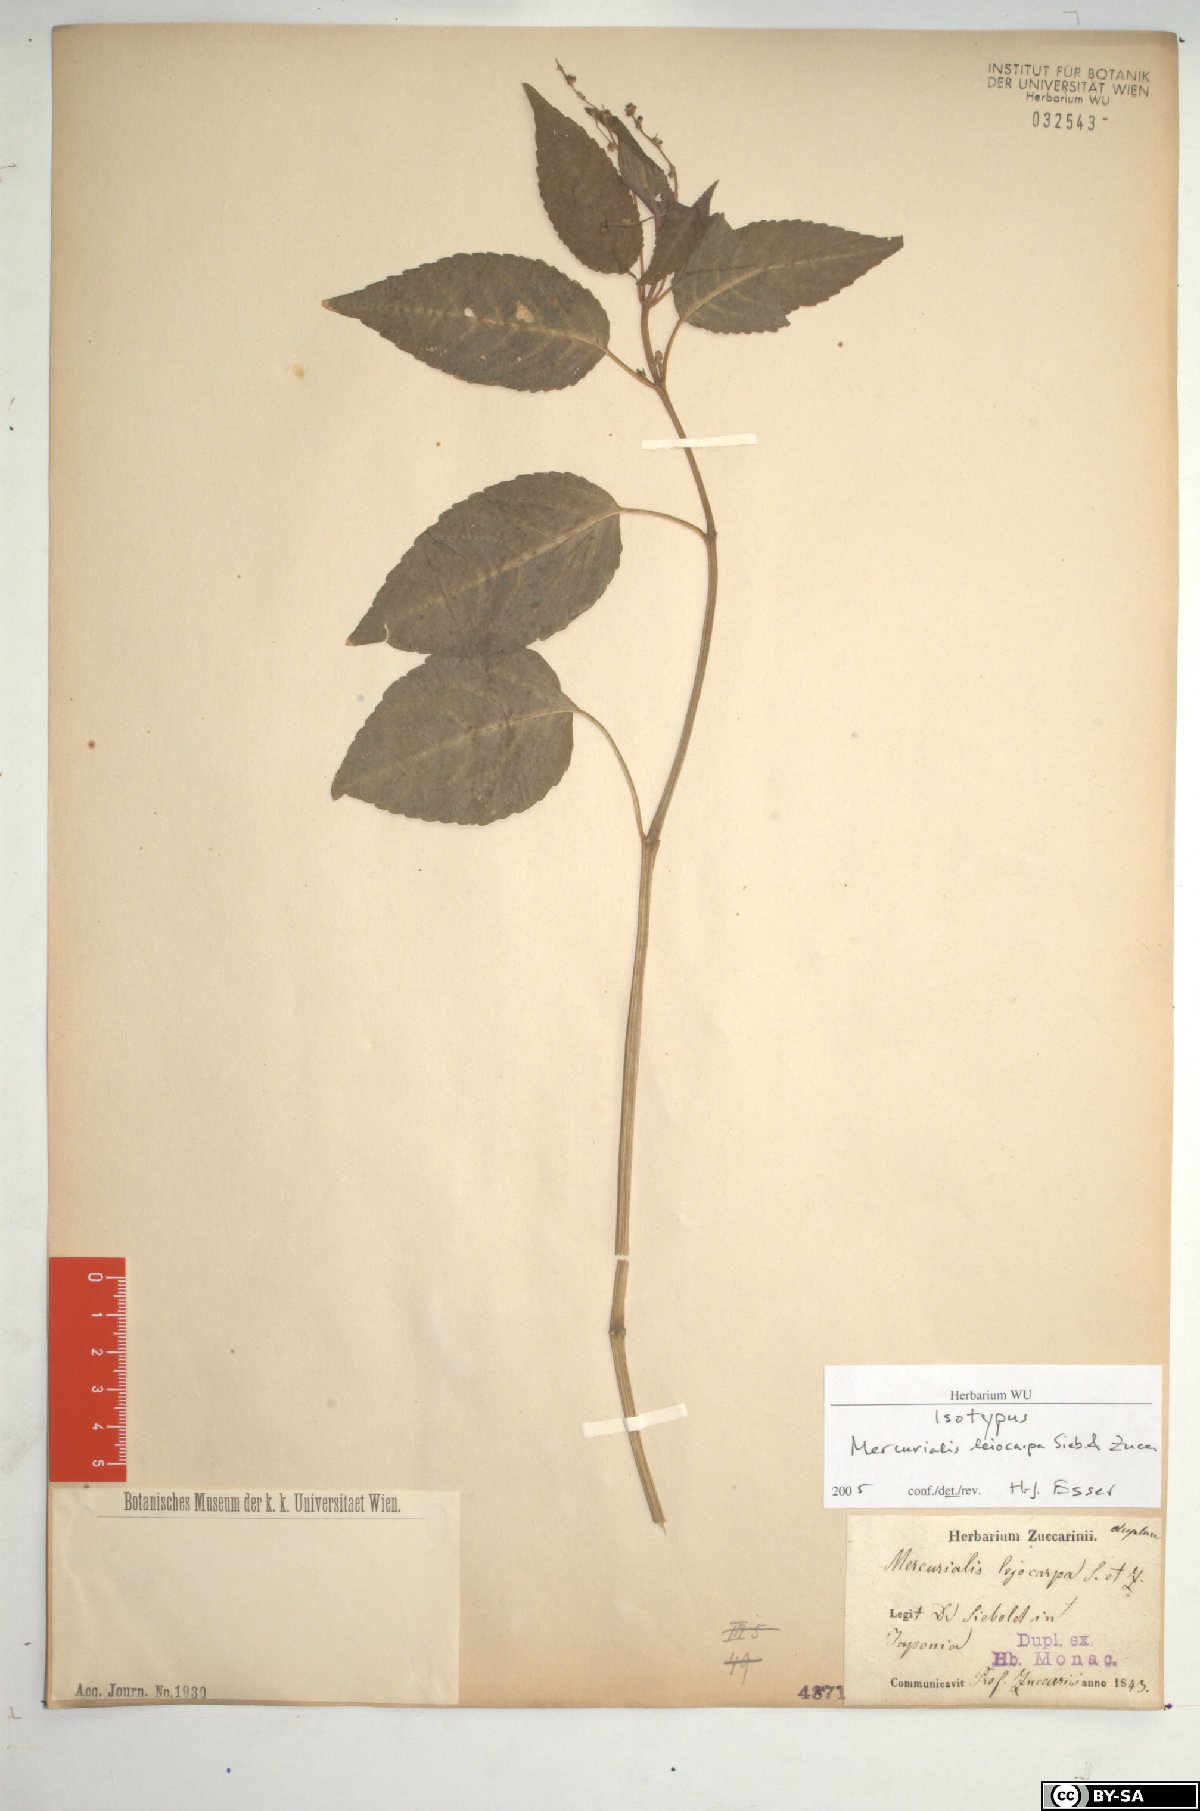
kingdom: Plantae
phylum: Tracheophyta
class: Magnoliopsida
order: Malpighiales
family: Euphorbiaceae
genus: Mercurialis
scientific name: Mercurialis leiocarpa
